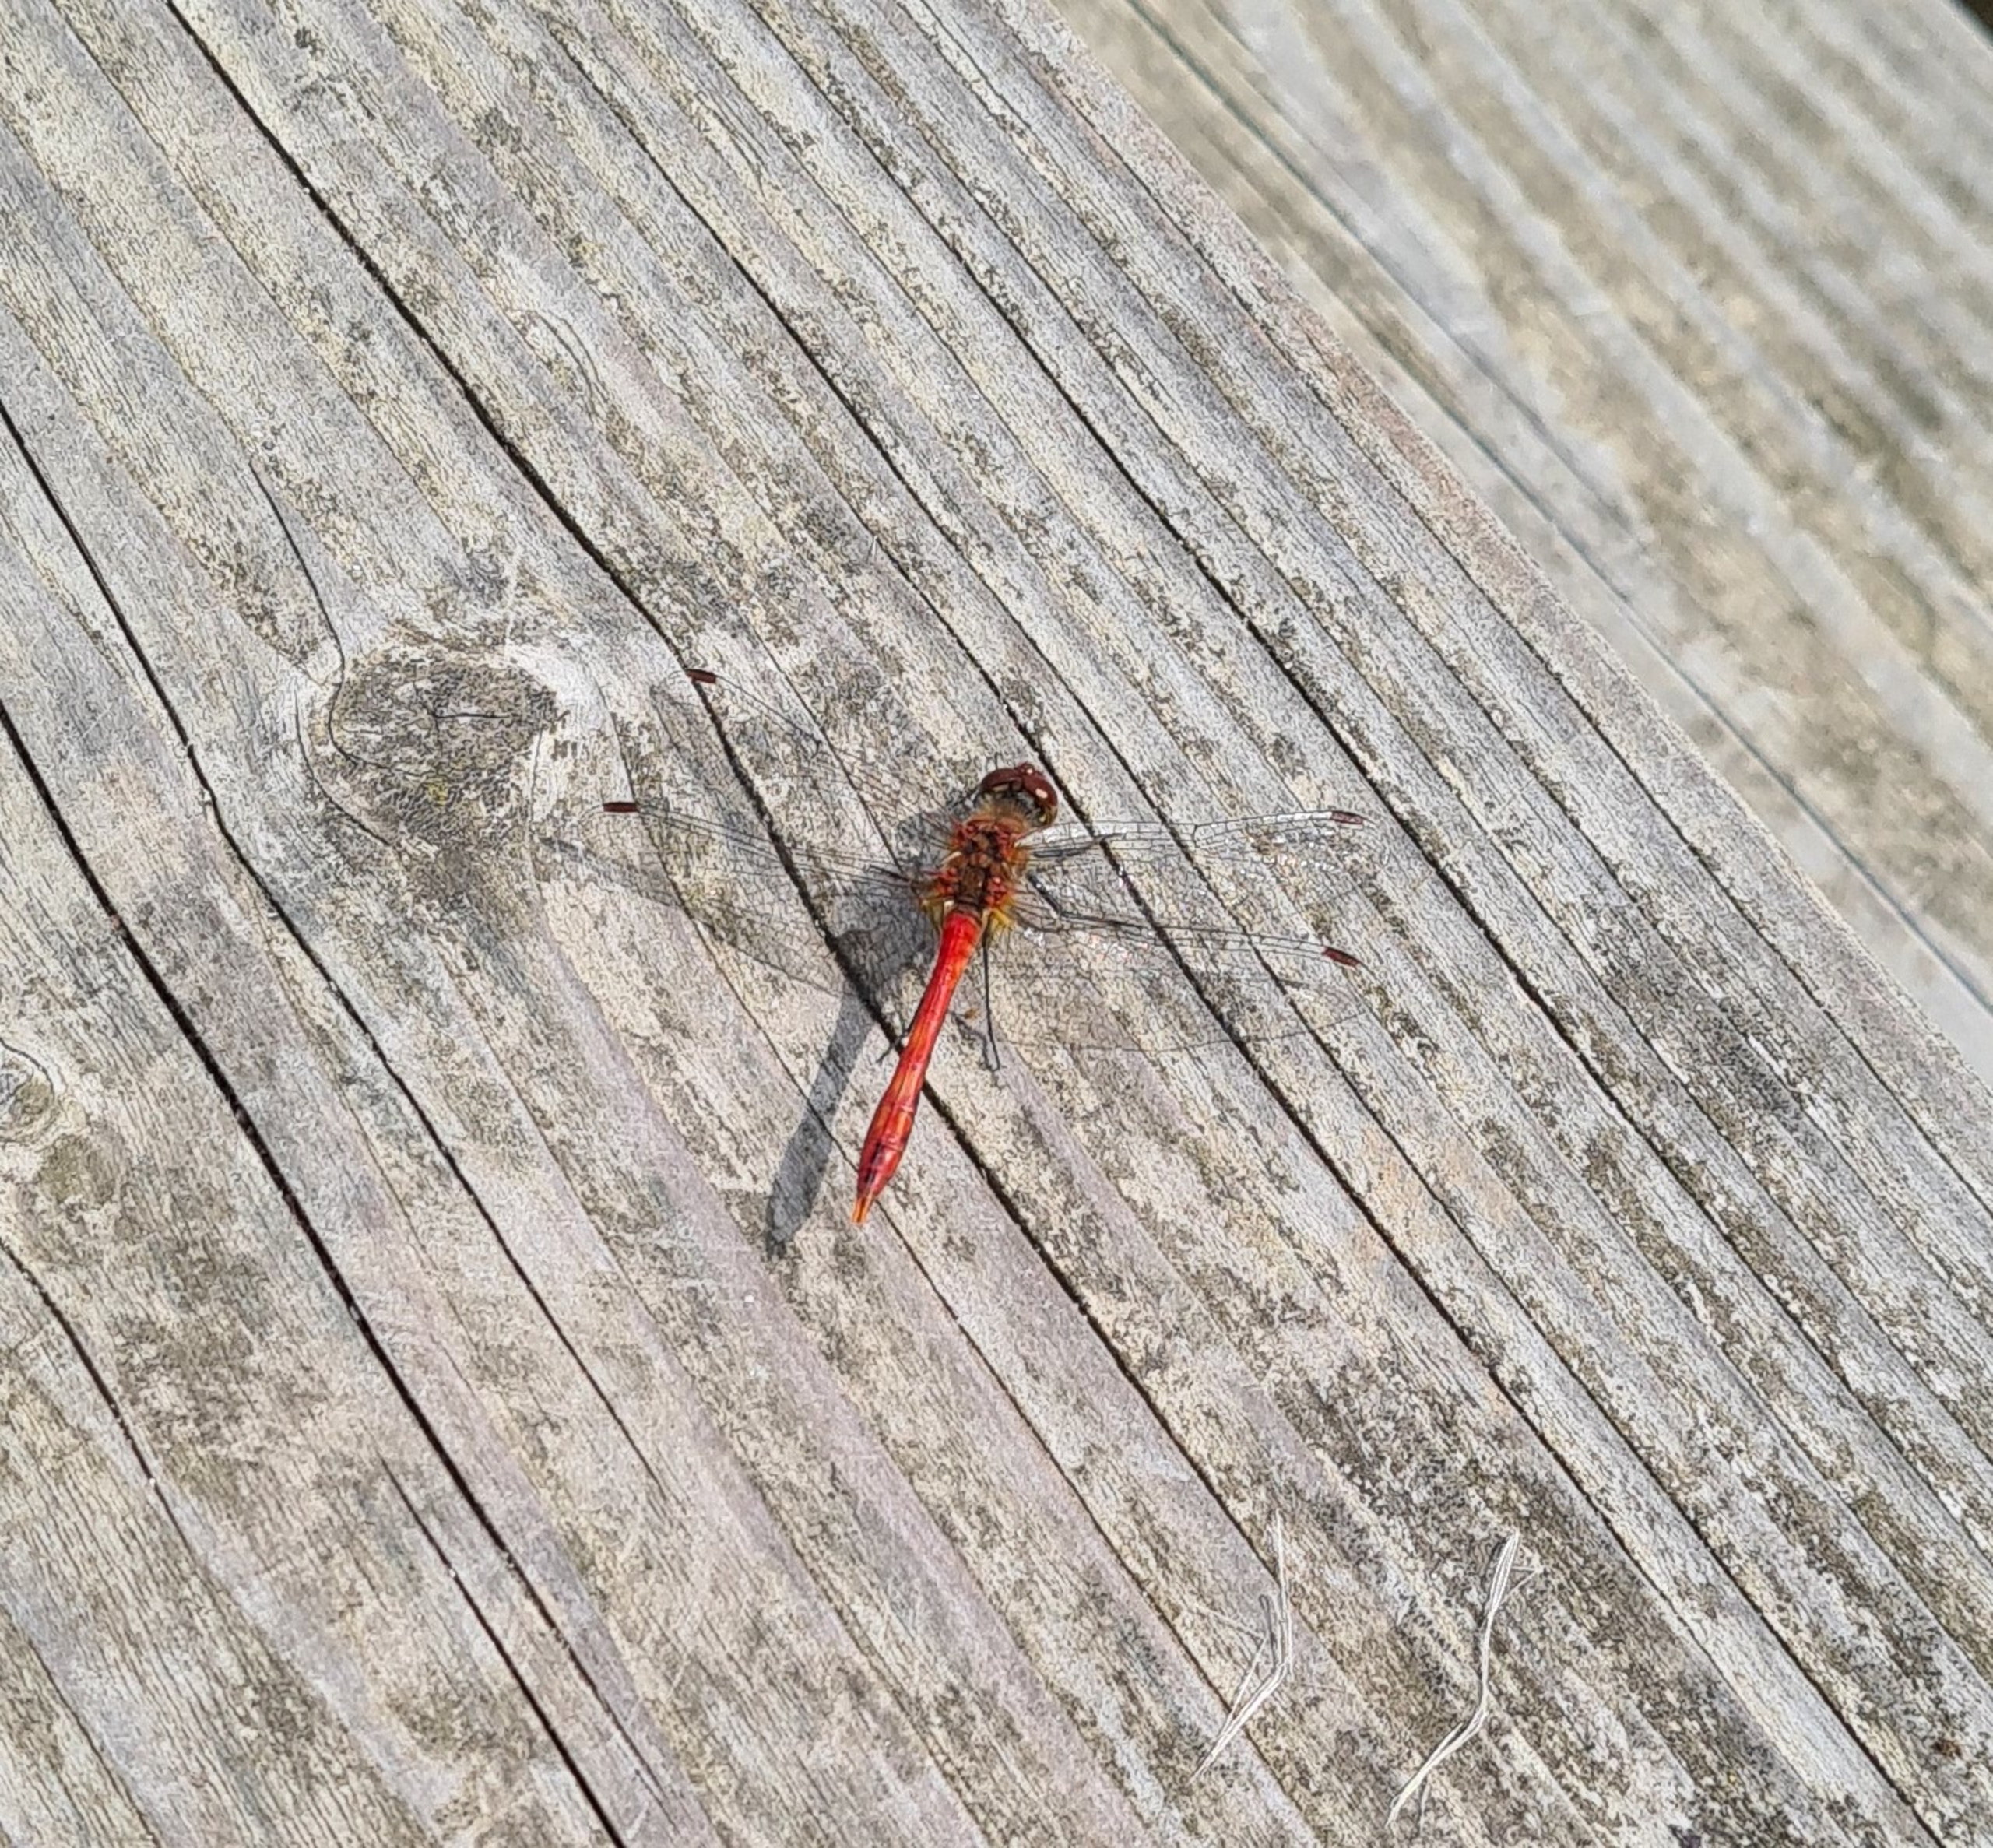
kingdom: Animalia
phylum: Arthropoda
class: Insecta
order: Odonata
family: Libellulidae
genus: Sympetrum
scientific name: Sympetrum sanguineum
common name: Blodrød hedelibel
